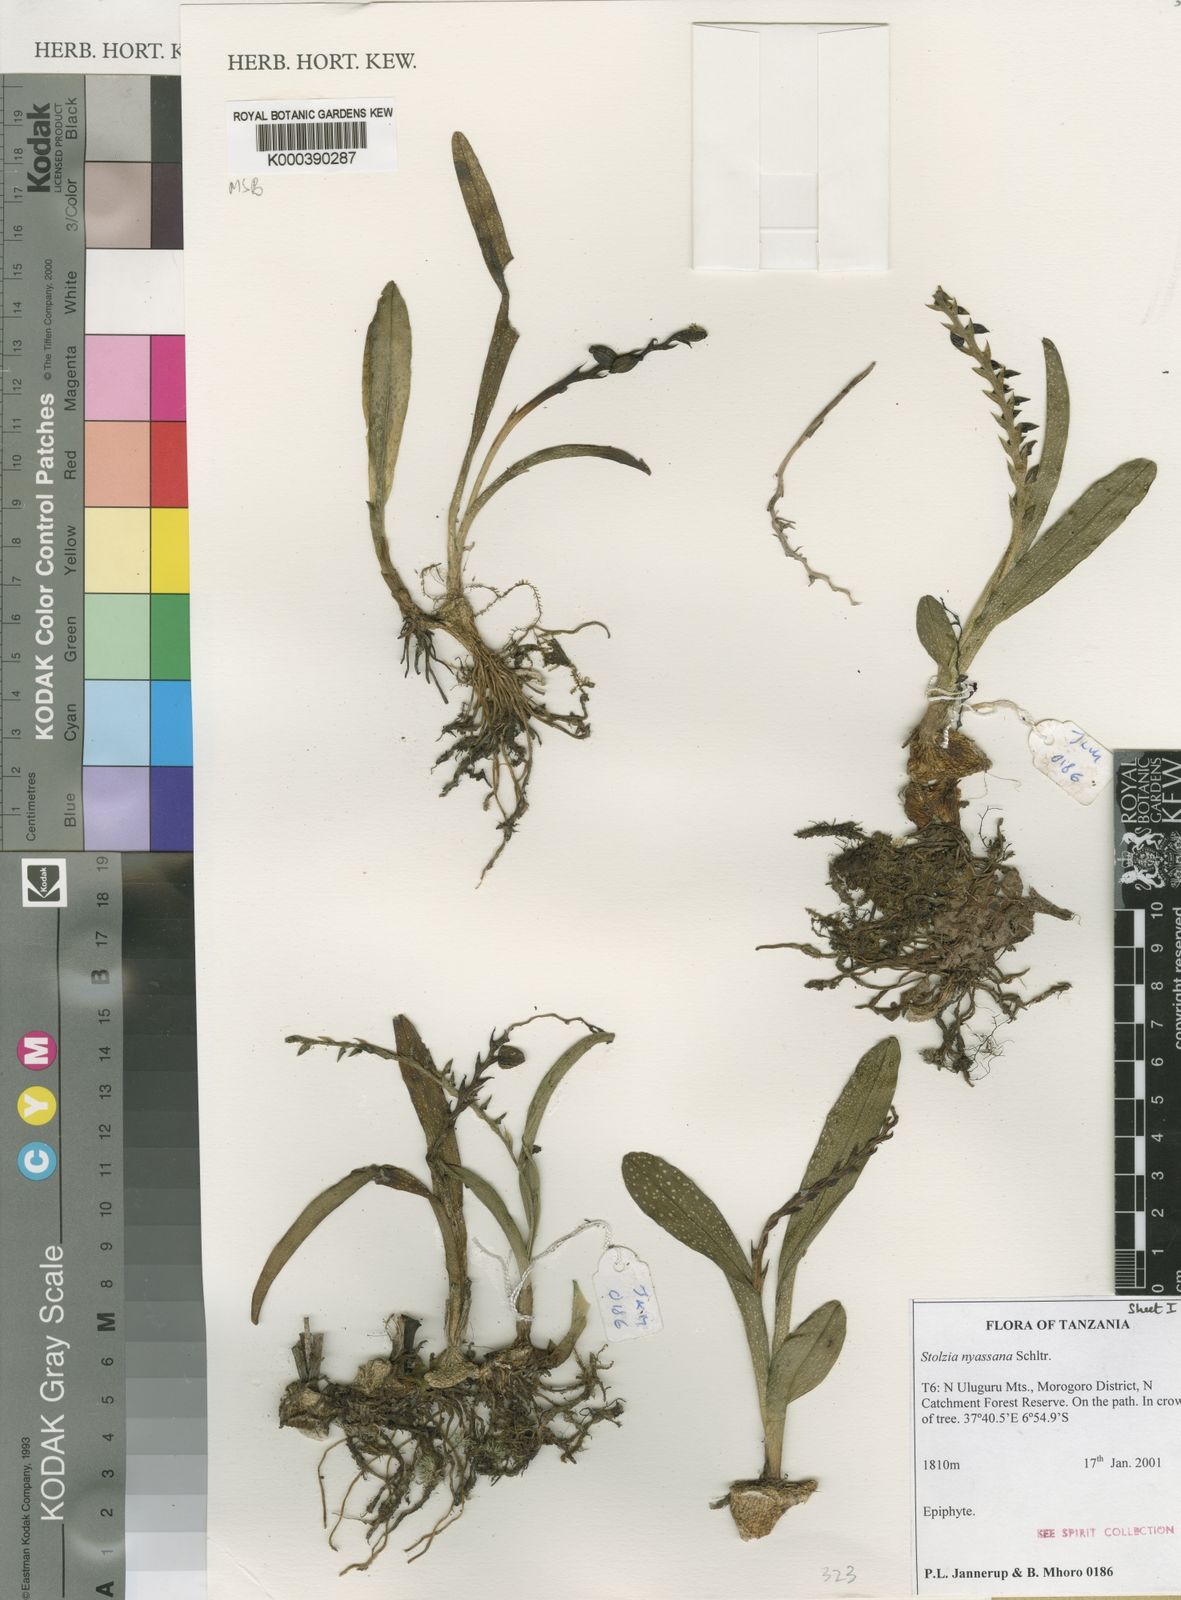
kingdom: Plantae
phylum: Tracheophyta
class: Liliopsida
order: Asparagales
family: Orchidaceae
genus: Porpax
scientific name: Porpax nyassana
